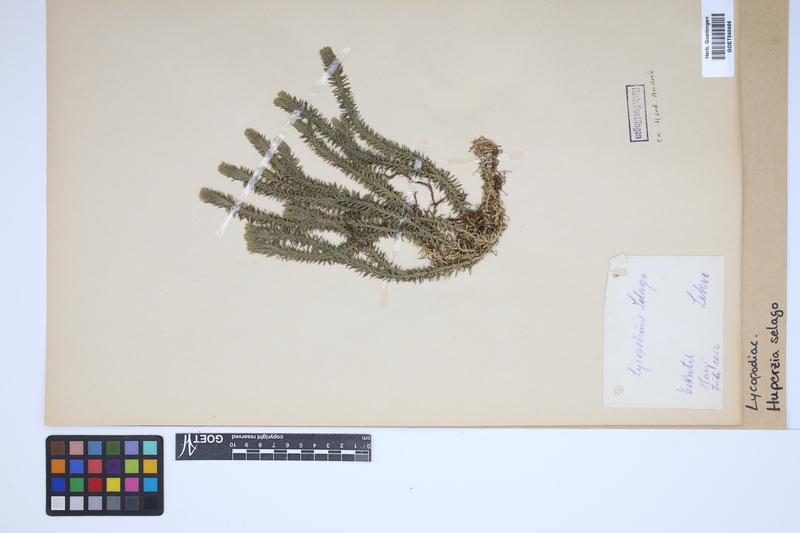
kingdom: Plantae
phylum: Tracheophyta
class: Lycopodiopsida
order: Lycopodiales
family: Lycopodiaceae
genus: Huperzia
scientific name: Huperzia selago
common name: Northern firmoss
